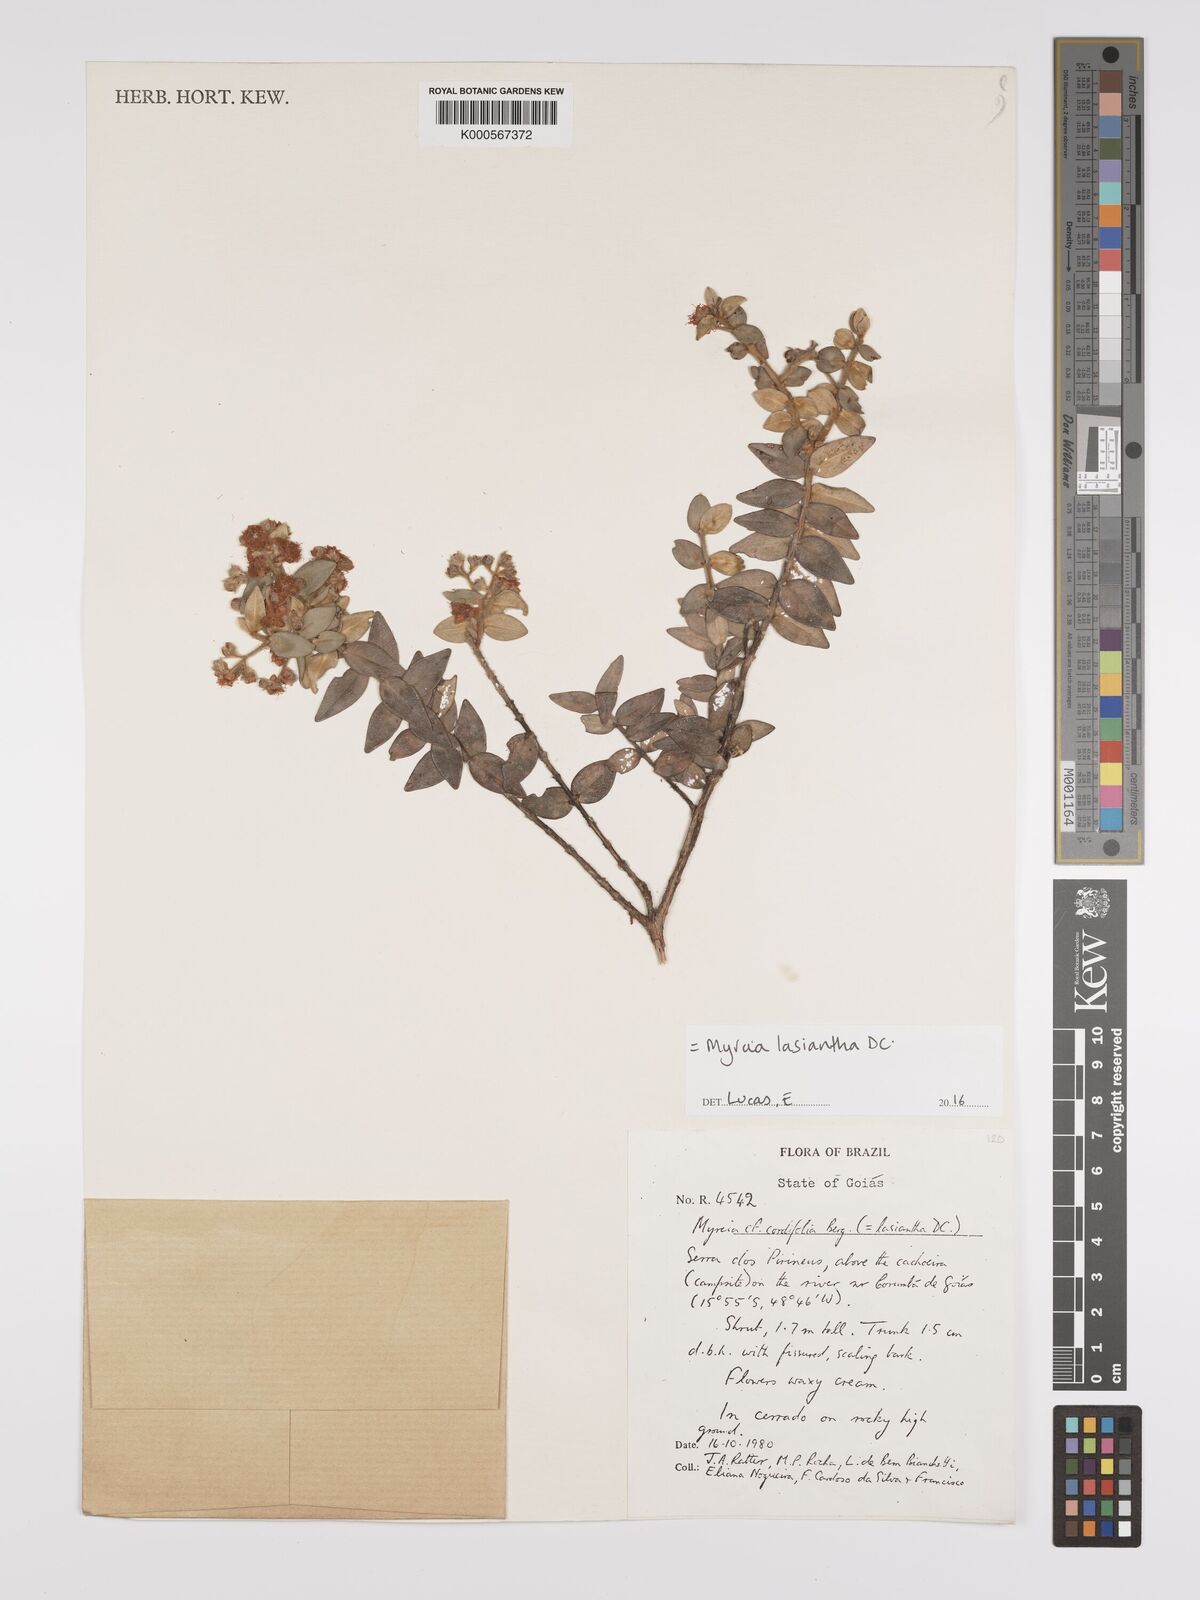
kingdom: Plantae
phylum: Tracheophyta
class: Magnoliopsida
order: Myrtales
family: Myrtaceae
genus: Myrcia
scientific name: Myrcia lasiantha
